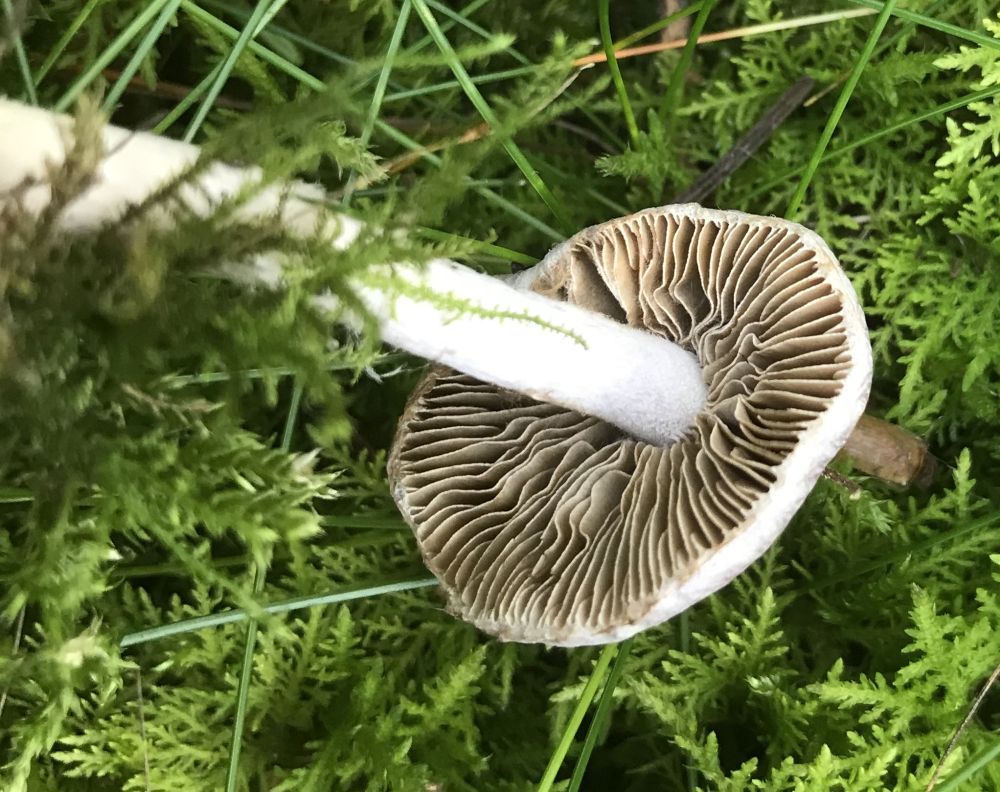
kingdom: Fungi
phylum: Basidiomycota
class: Agaricomycetes
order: Agaricales
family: Inocybaceae
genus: Inocybe
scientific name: Inocybe geophylla
